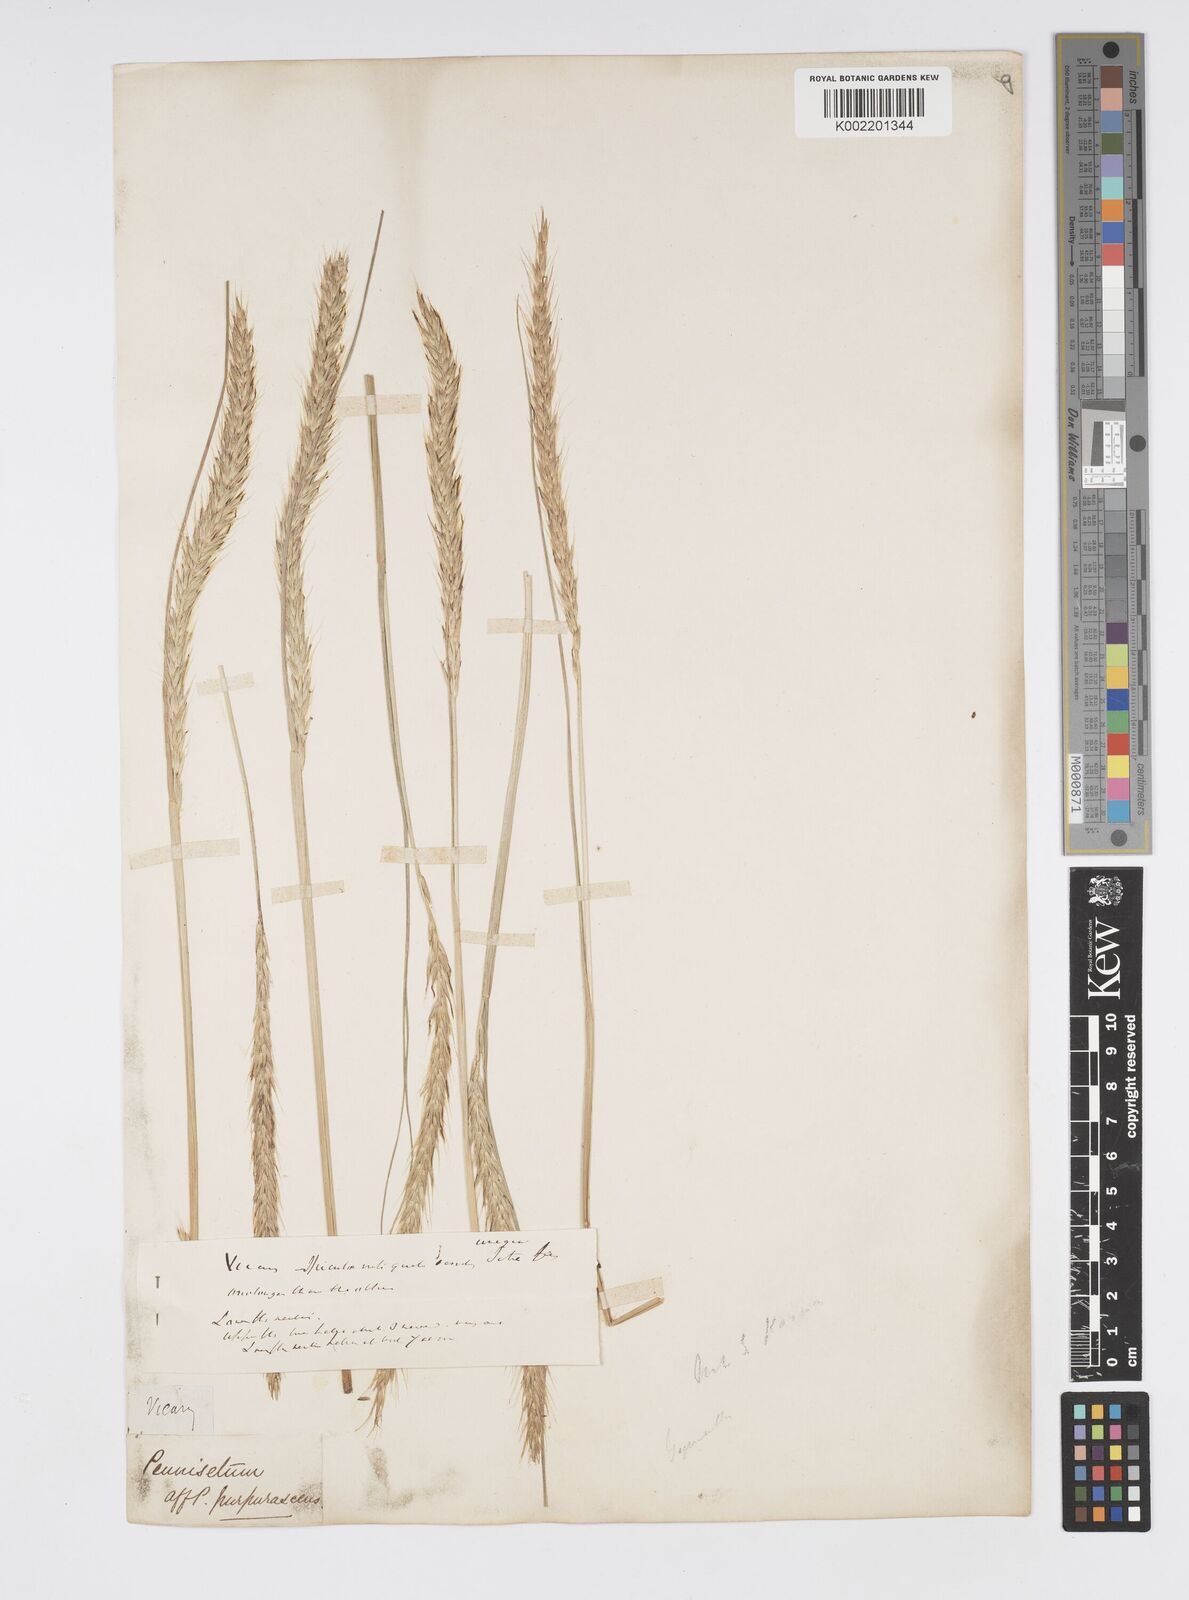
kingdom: Plantae
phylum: Tracheophyta
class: Liliopsida
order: Poales
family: Poaceae
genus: Cenchrus
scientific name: Cenchrus hohenackeri
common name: Moya grass
